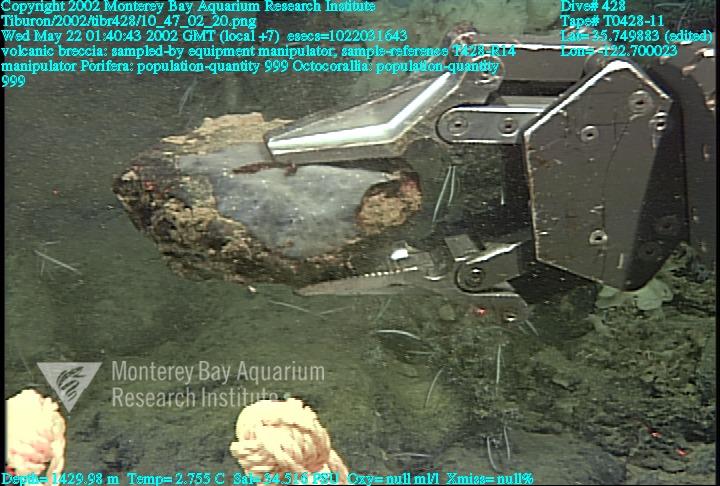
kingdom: Animalia
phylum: Porifera
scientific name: Porifera
